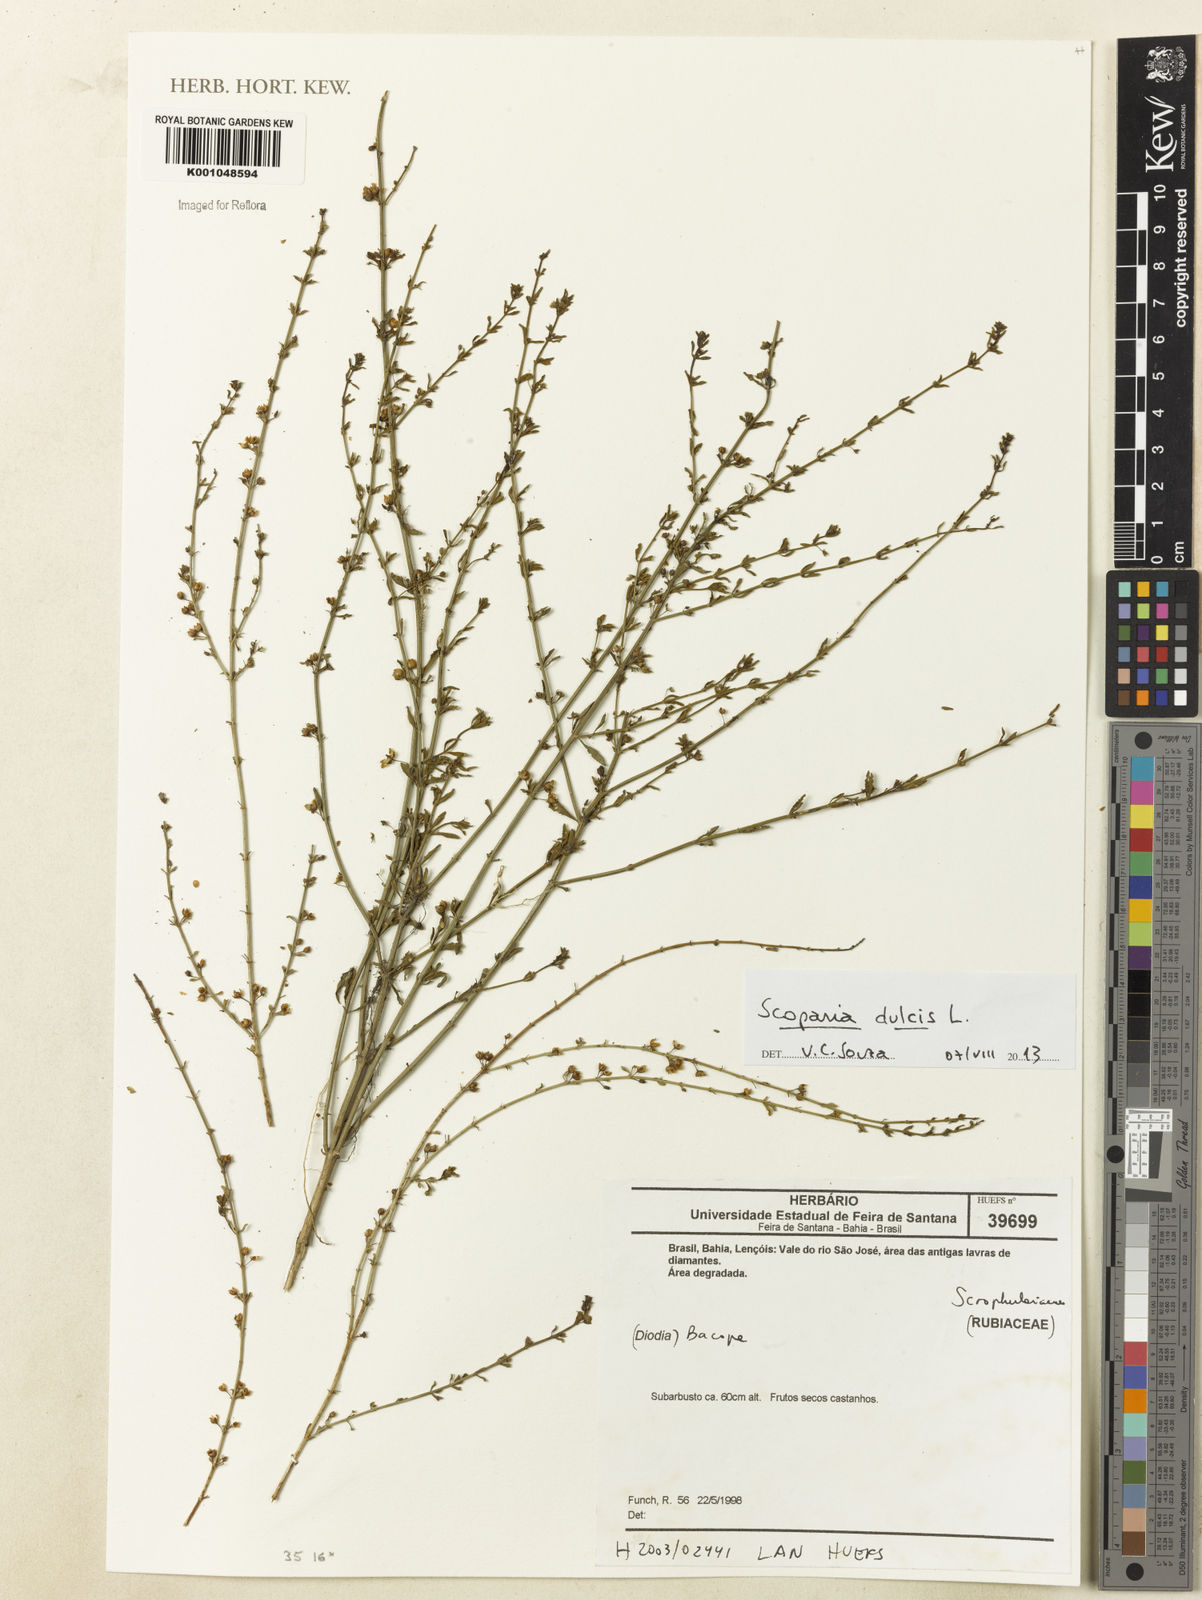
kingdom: Plantae
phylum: Tracheophyta
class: Magnoliopsida
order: Lamiales
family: Plantaginaceae
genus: Scoparia
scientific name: Scoparia dulcis
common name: Scoparia-weed
